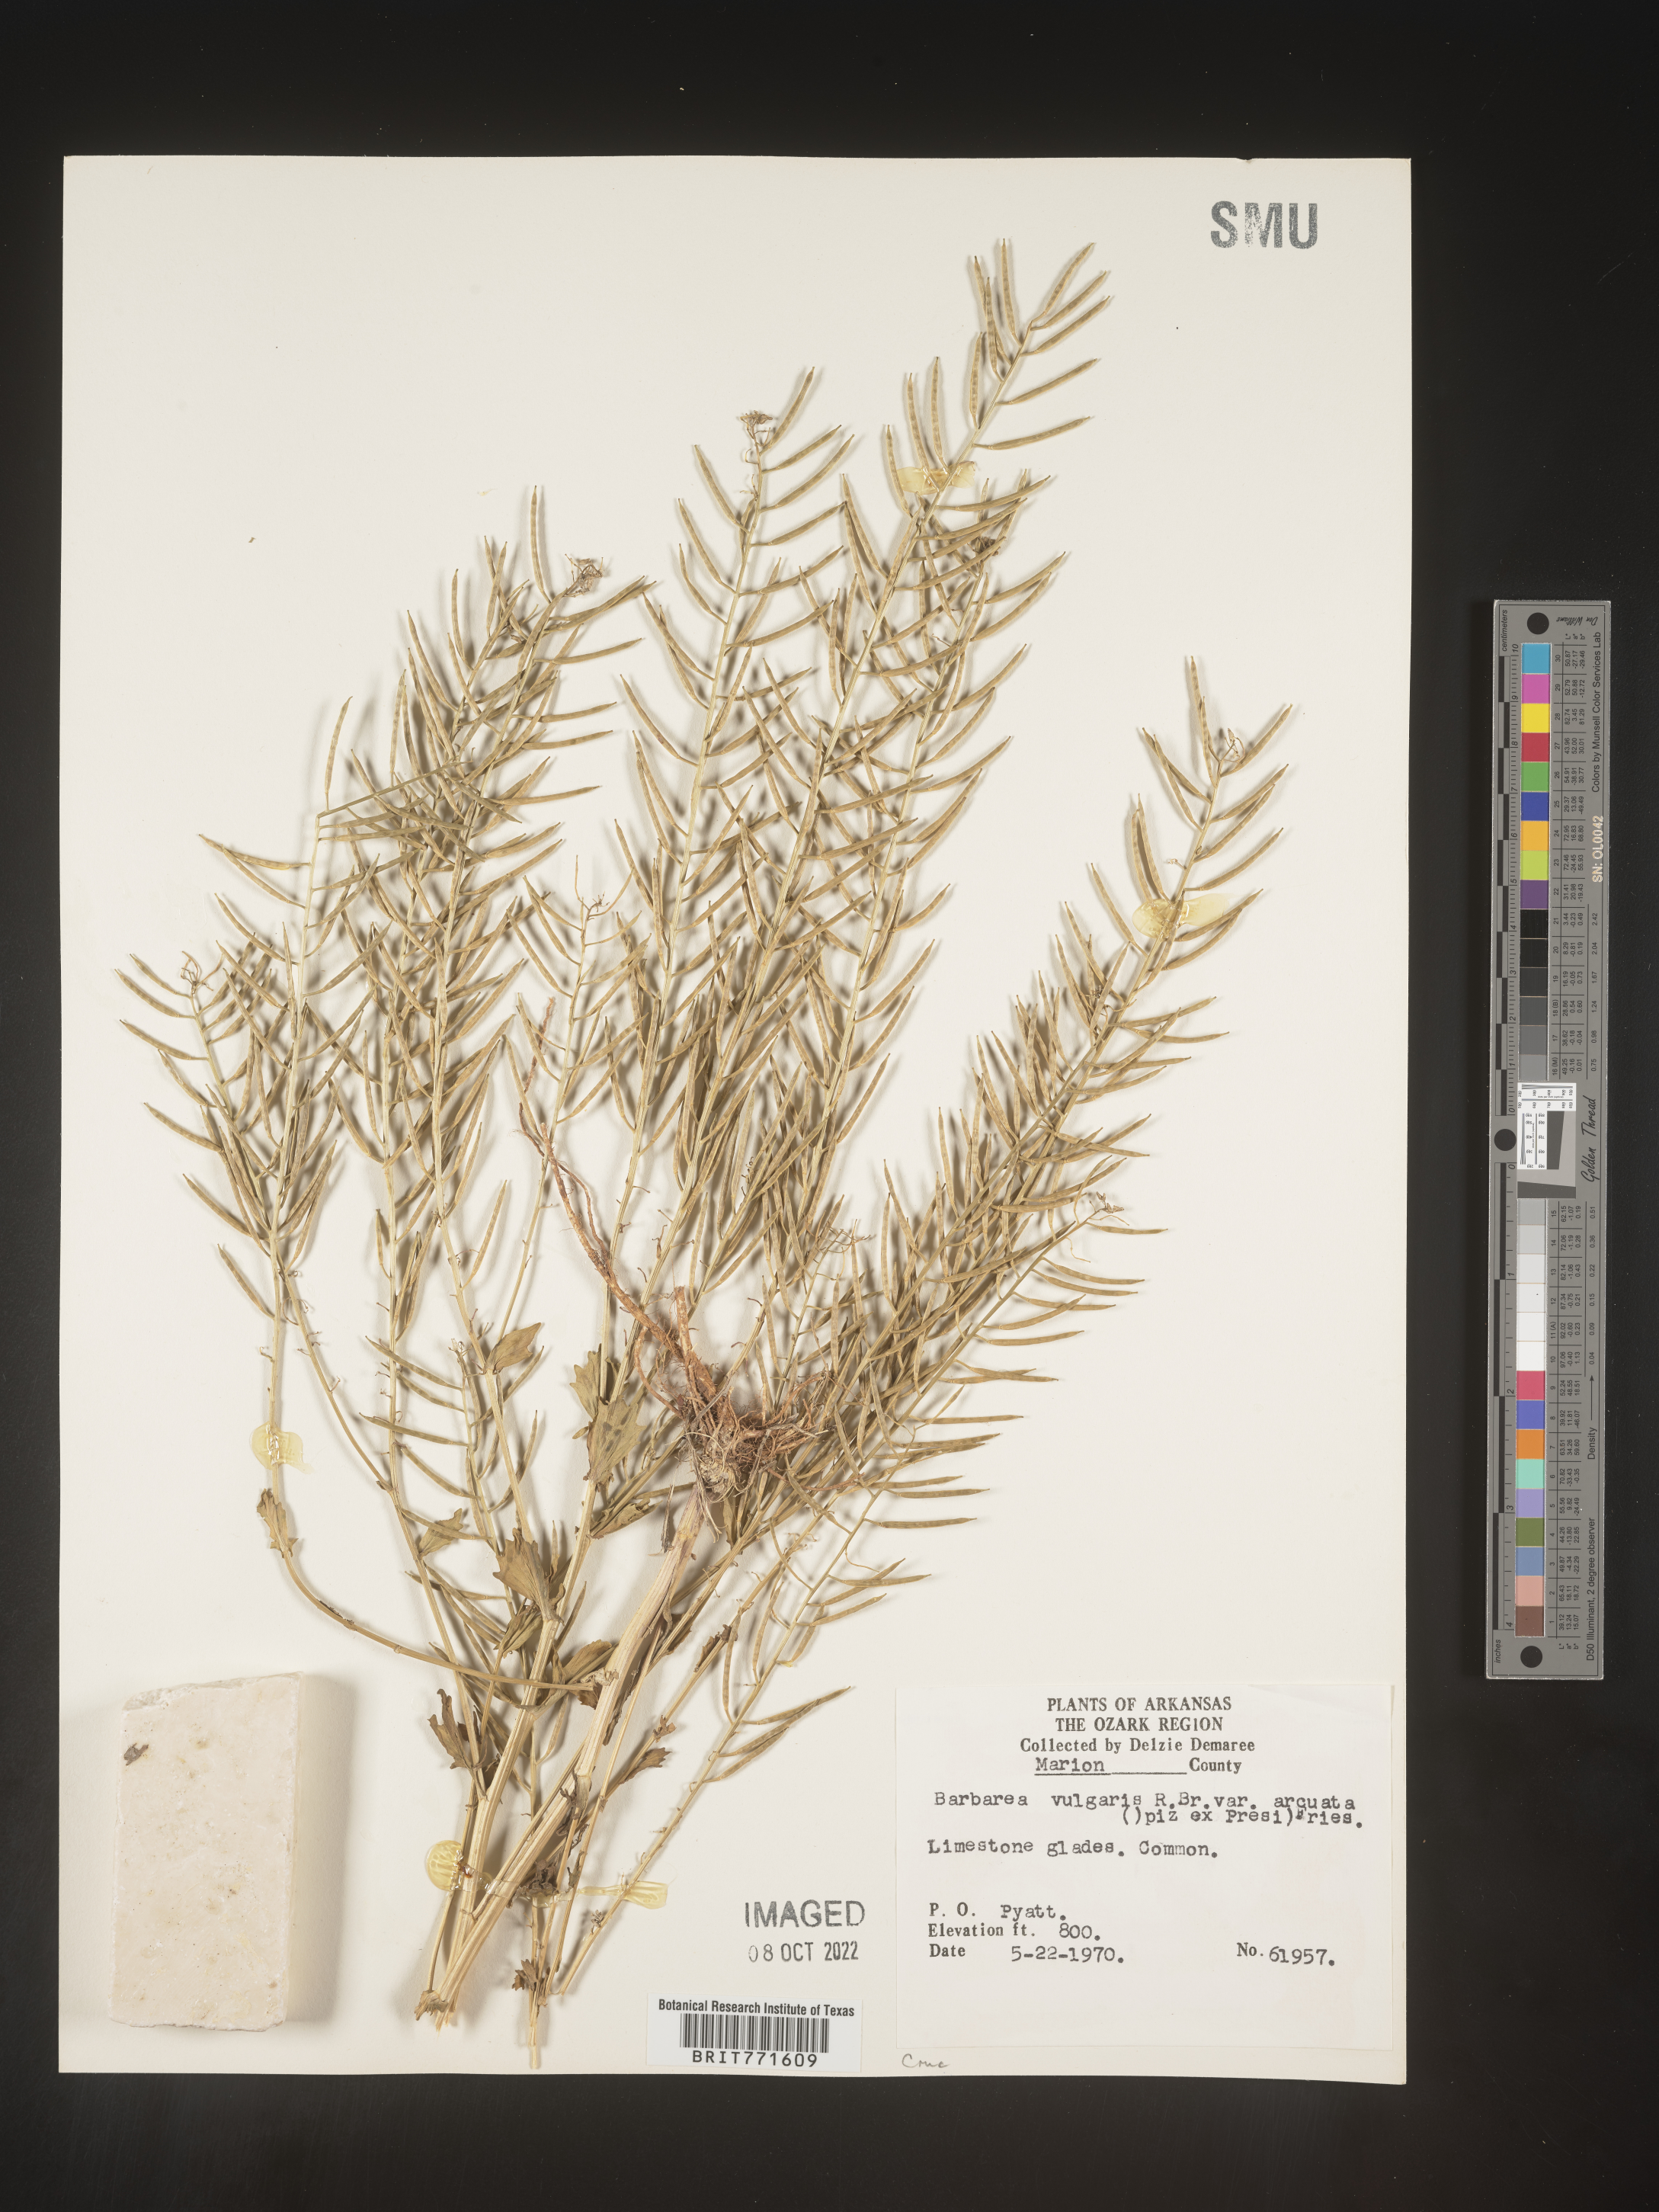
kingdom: Plantae
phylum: Tracheophyta
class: Magnoliopsida
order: Brassicales
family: Brassicaceae
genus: Barbarea
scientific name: Barbarea vulgaris
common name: Cressy-greens
